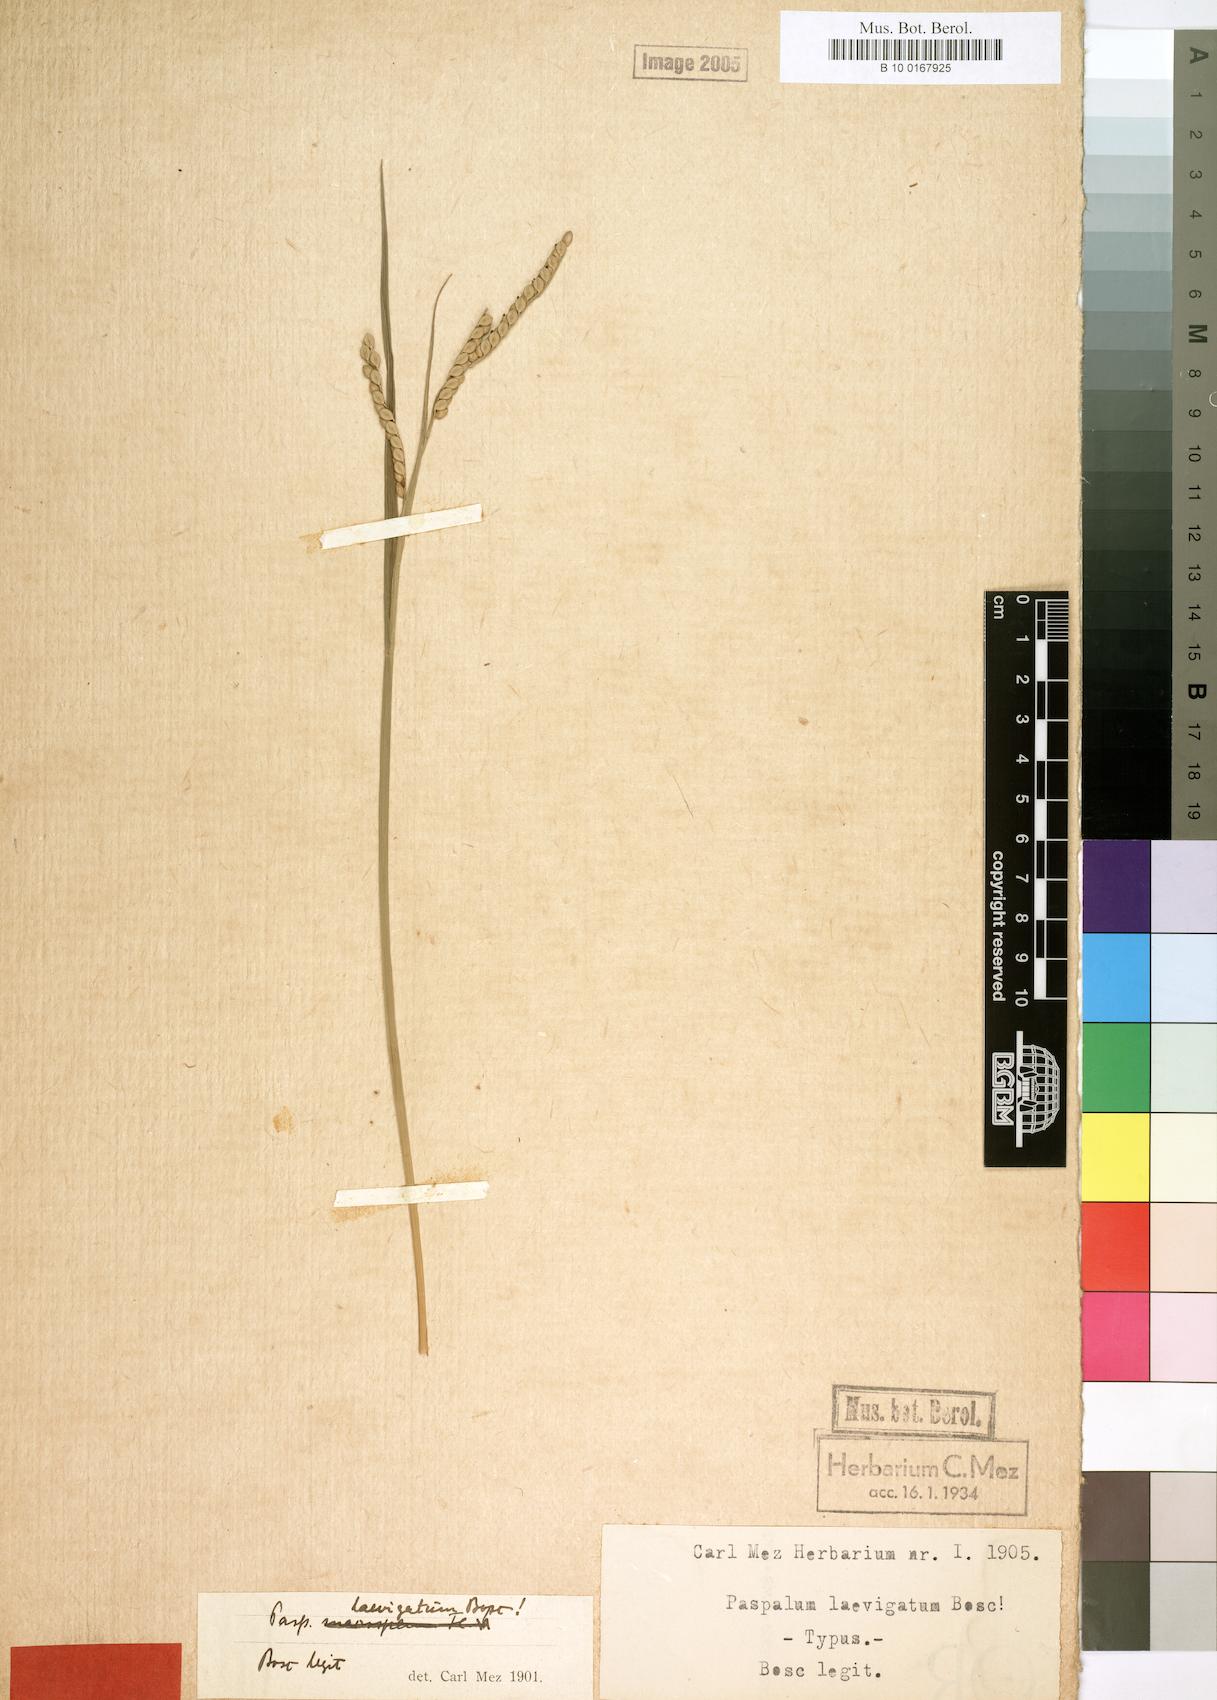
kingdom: Plantae
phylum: Tracheophyta
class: Liliopsida
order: Poales
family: Poaceae
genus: Paspalum
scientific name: Paspalum floridanum
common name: Florida paspalum
